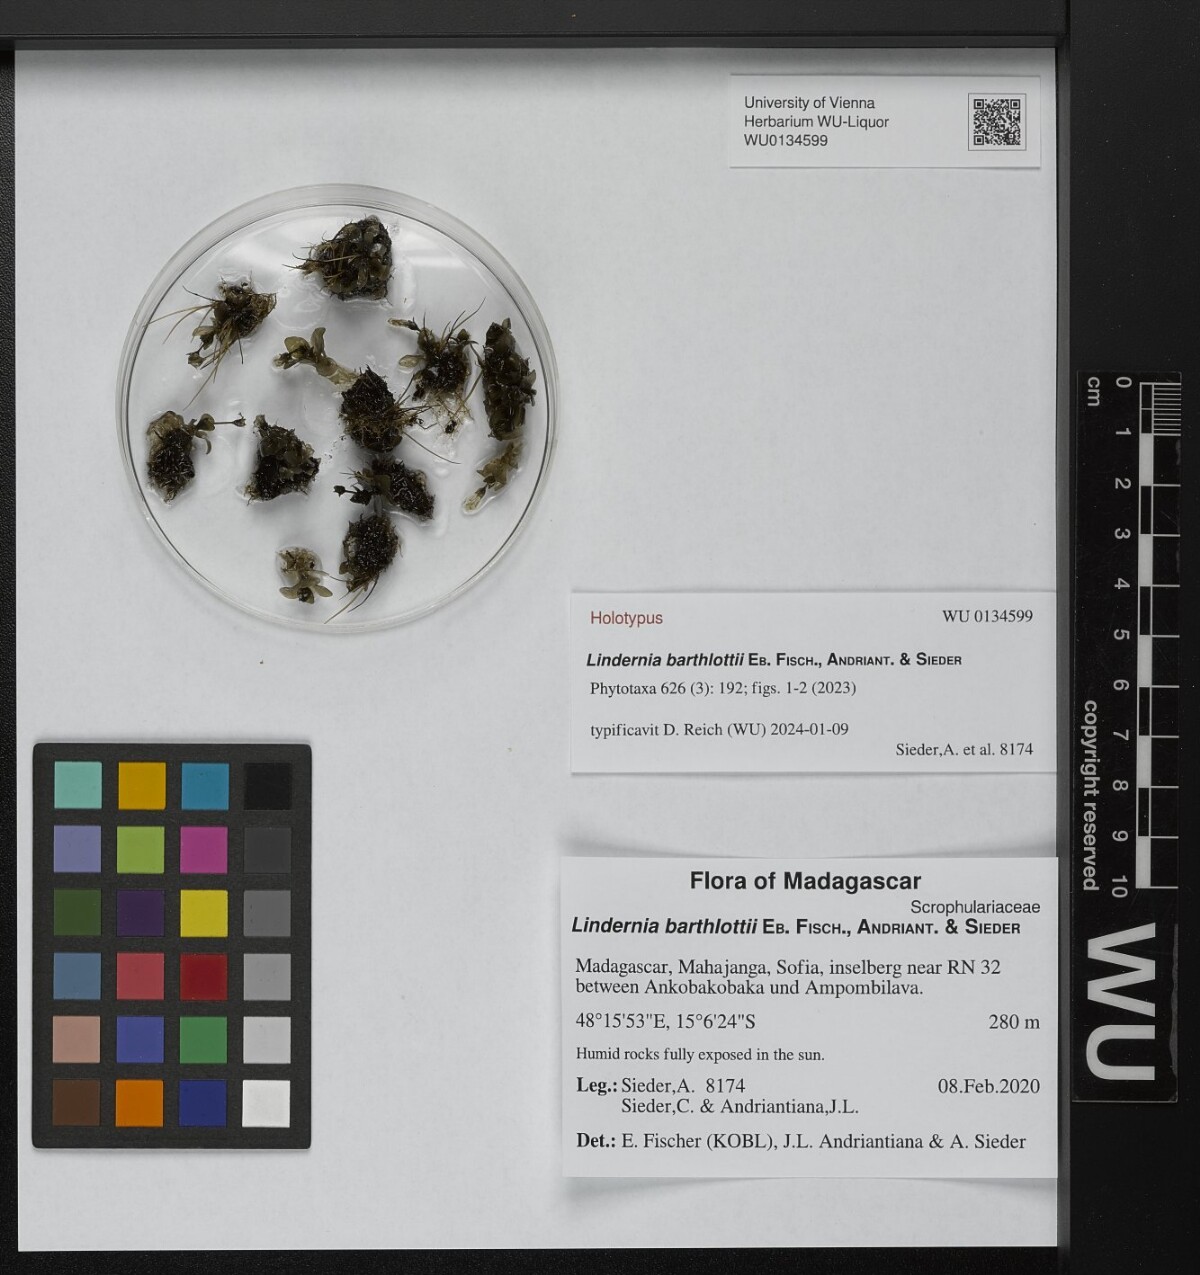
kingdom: Plantae
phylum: Tracheophyta
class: Magnoliopsida
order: Lamiales
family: Scrophulariaceae
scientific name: Scrophulariaceae
